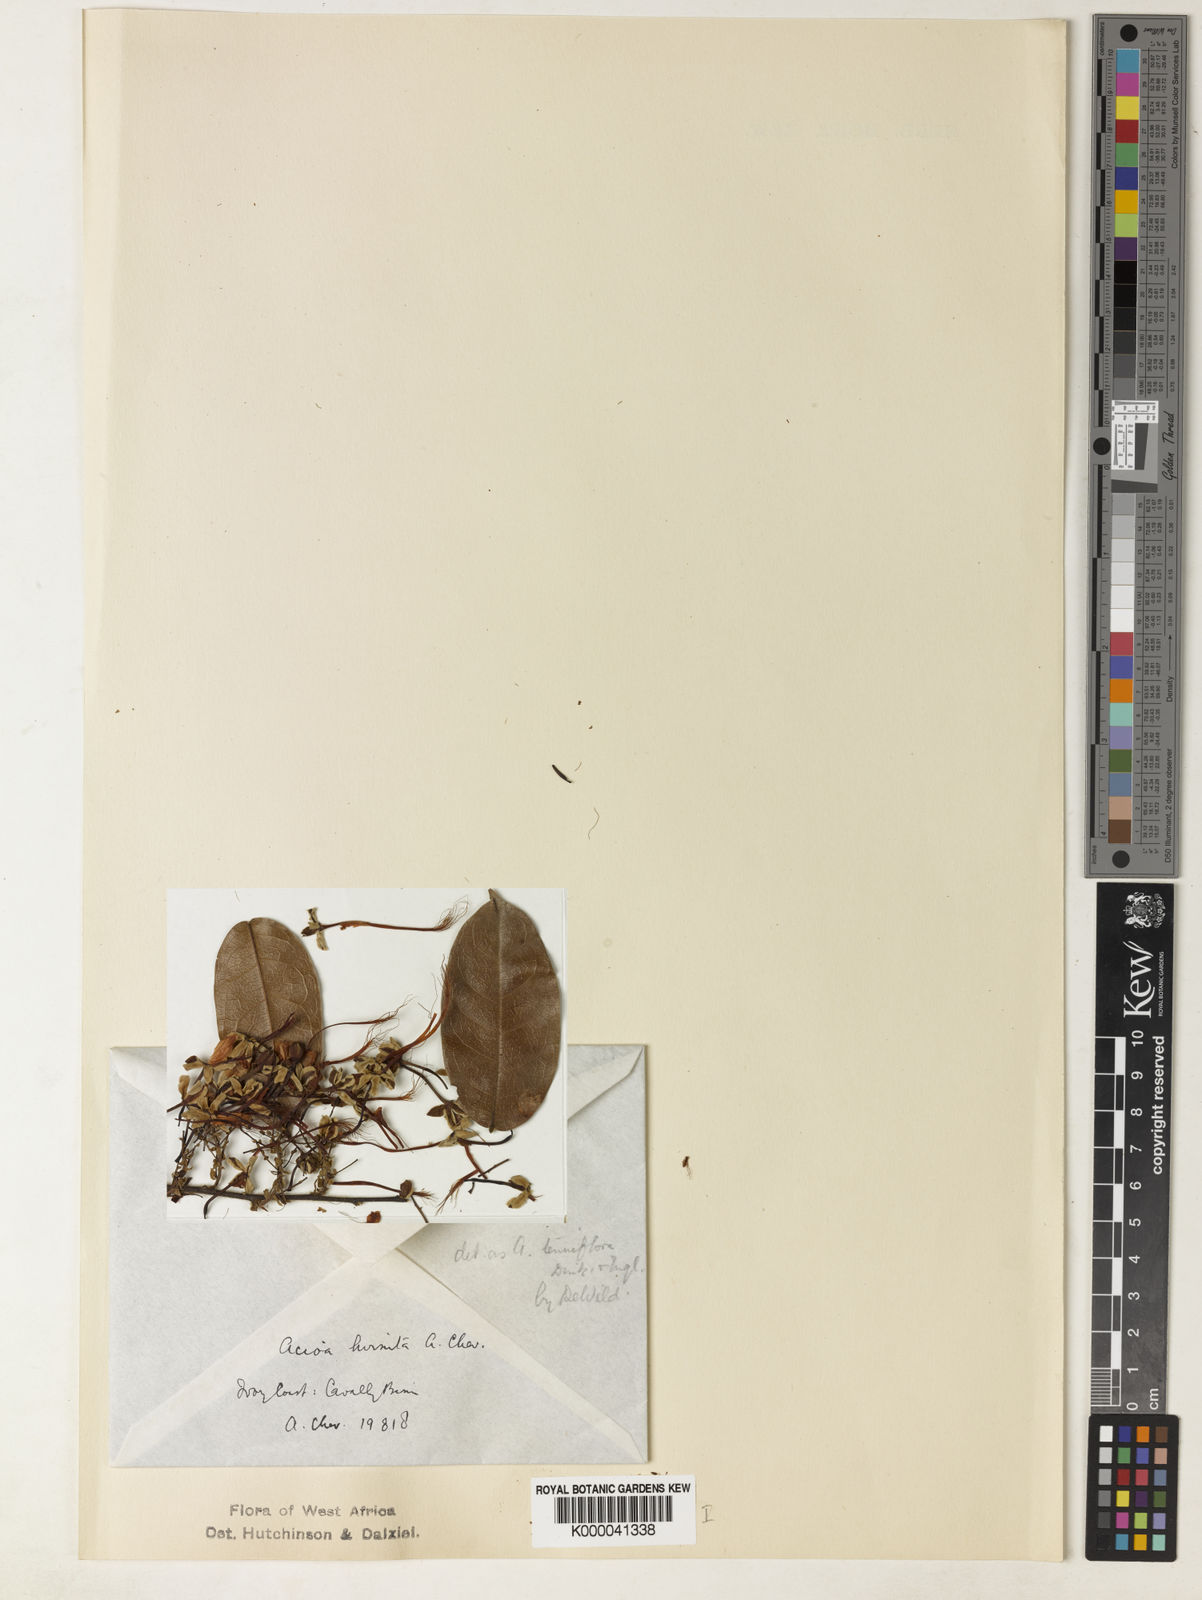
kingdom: Plantae
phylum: Tracheophyta
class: Magnoliopsida
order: Malpighiales
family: Chrysobalanaceae
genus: Dactyladenia
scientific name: Dactyladenia hirsuta
